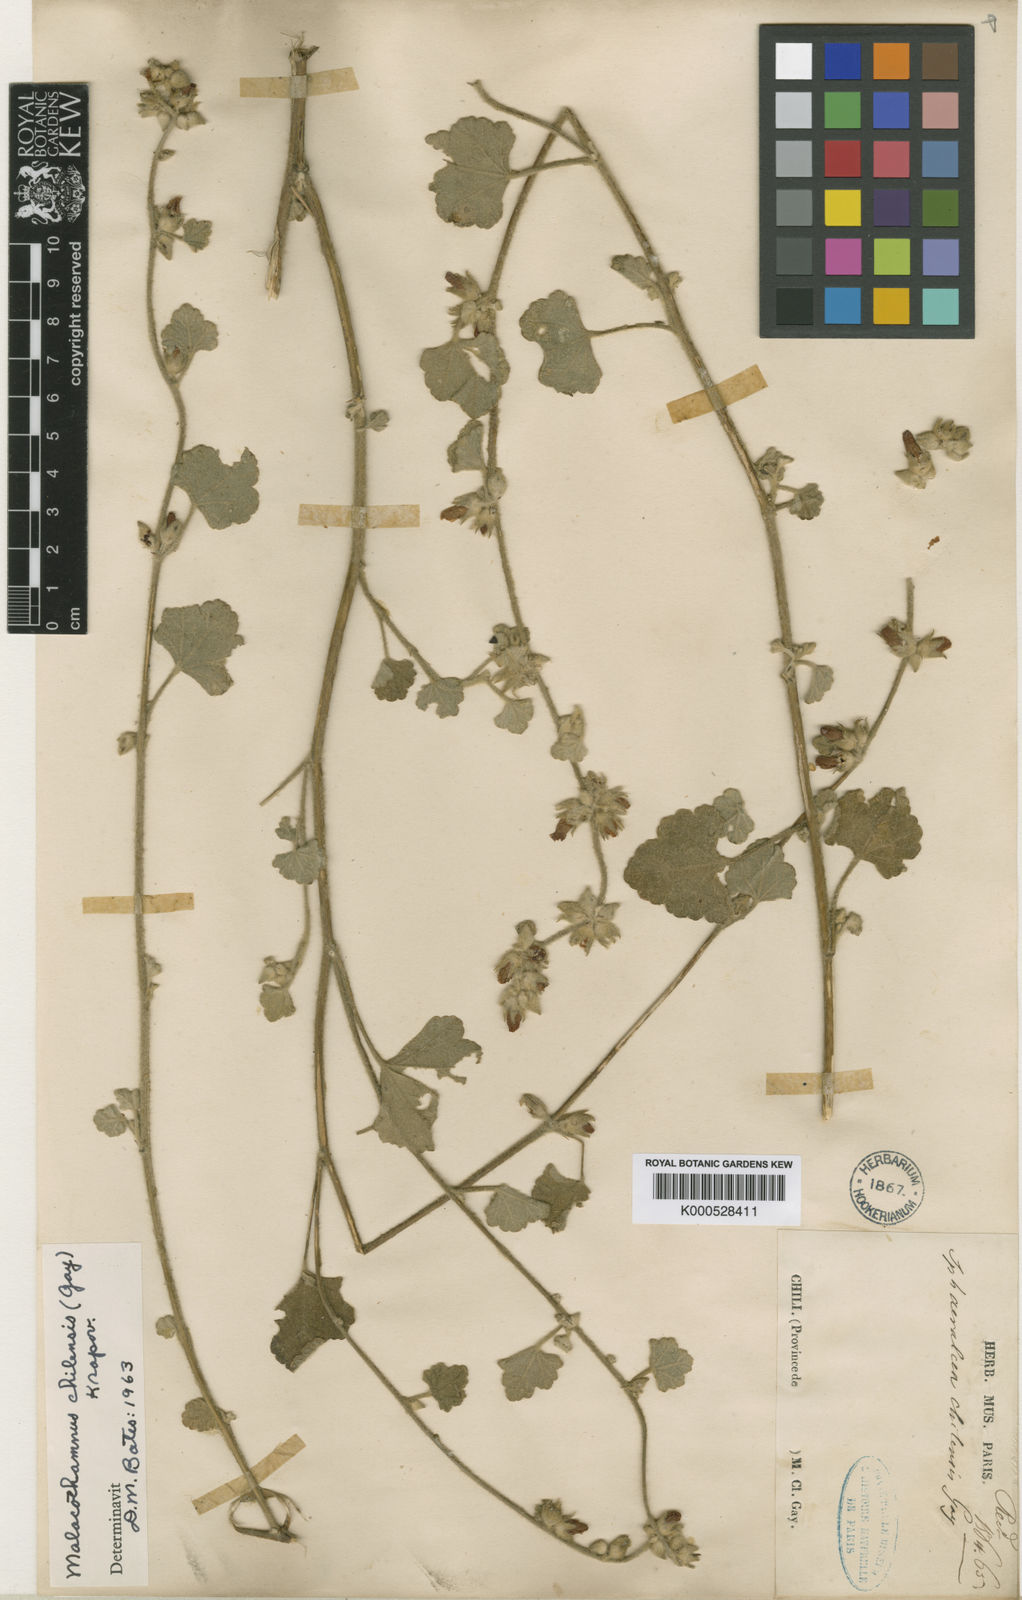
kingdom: Plantae
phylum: Tracheophyta
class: Magnoliopsida
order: Malvales
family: Malvaceae
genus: Andeimalva
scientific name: Andeimalva chilensis
